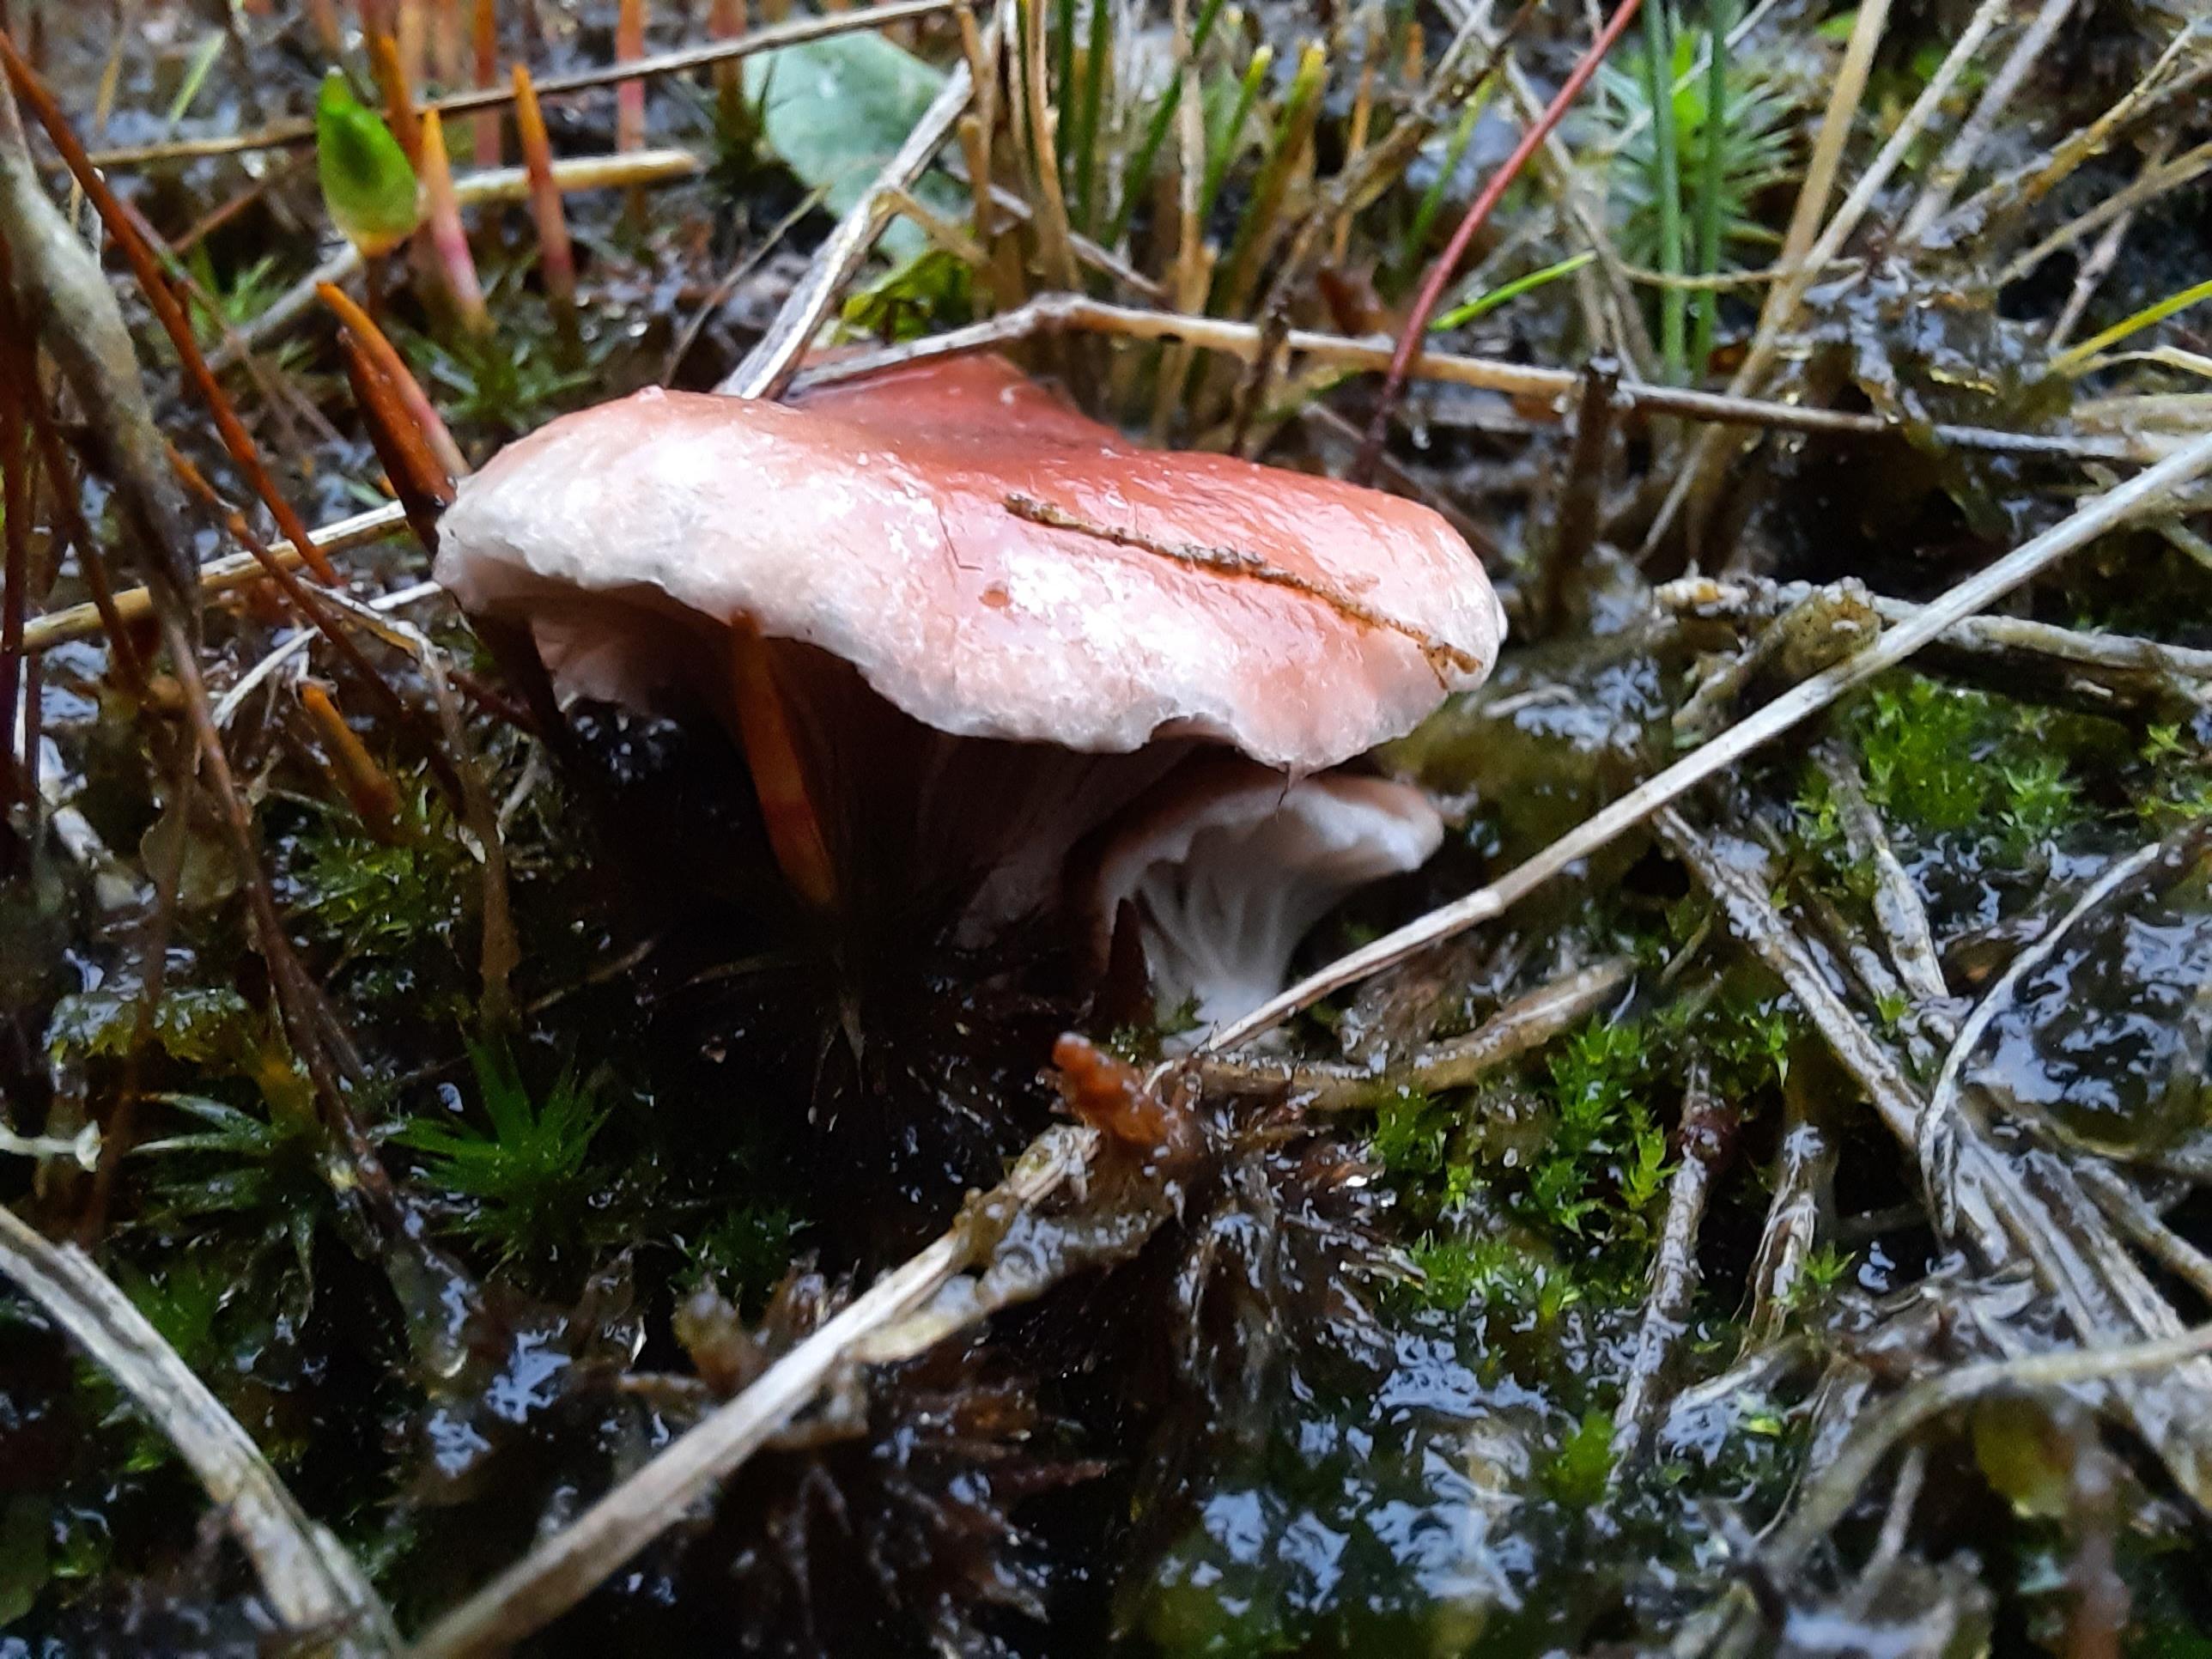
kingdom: Fungi
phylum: Basidiomycota
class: Agaricomycetes
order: Boletales
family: Gomphidiaceae
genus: Gomphidius
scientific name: Gomphidius roseus
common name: rosenrød slimslør
